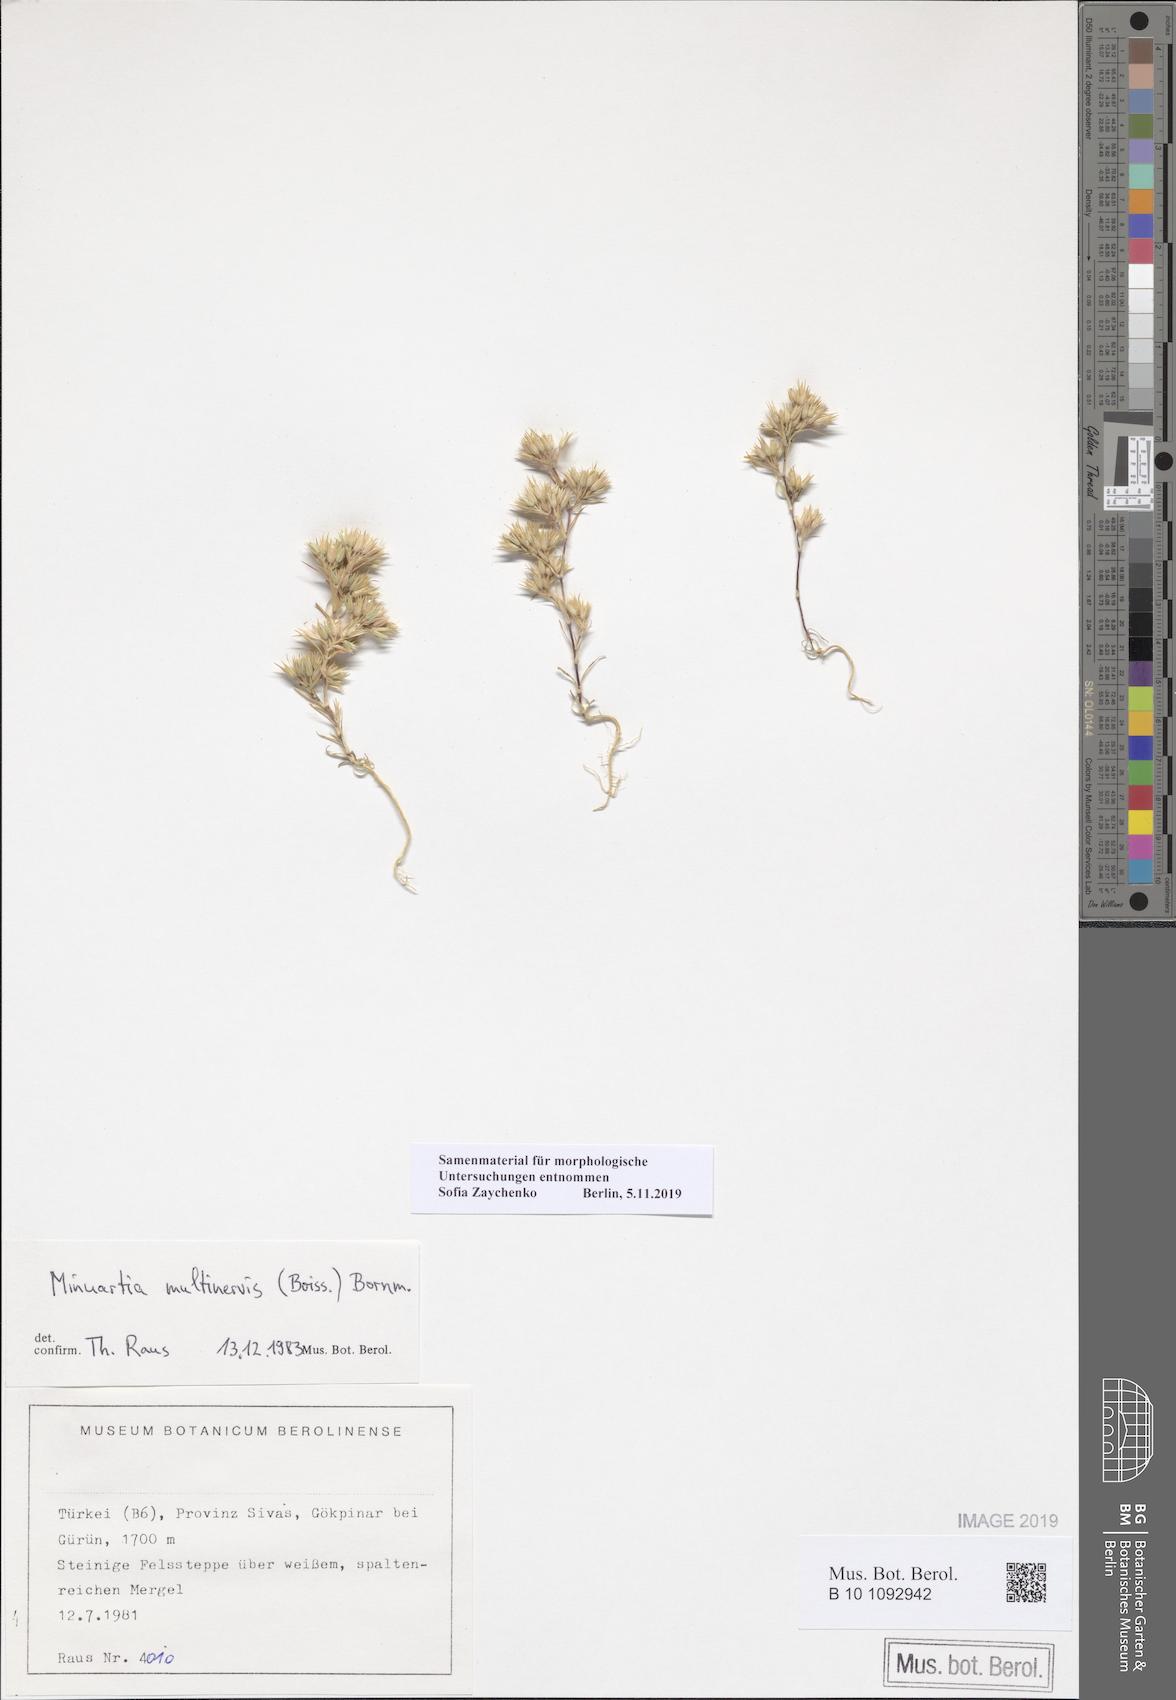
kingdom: Plantae
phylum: Tracheophyta
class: Magnoliopsida
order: Caryophyllales
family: Caryophyllaceae
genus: Minuartia
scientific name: Minuartia multinervis
